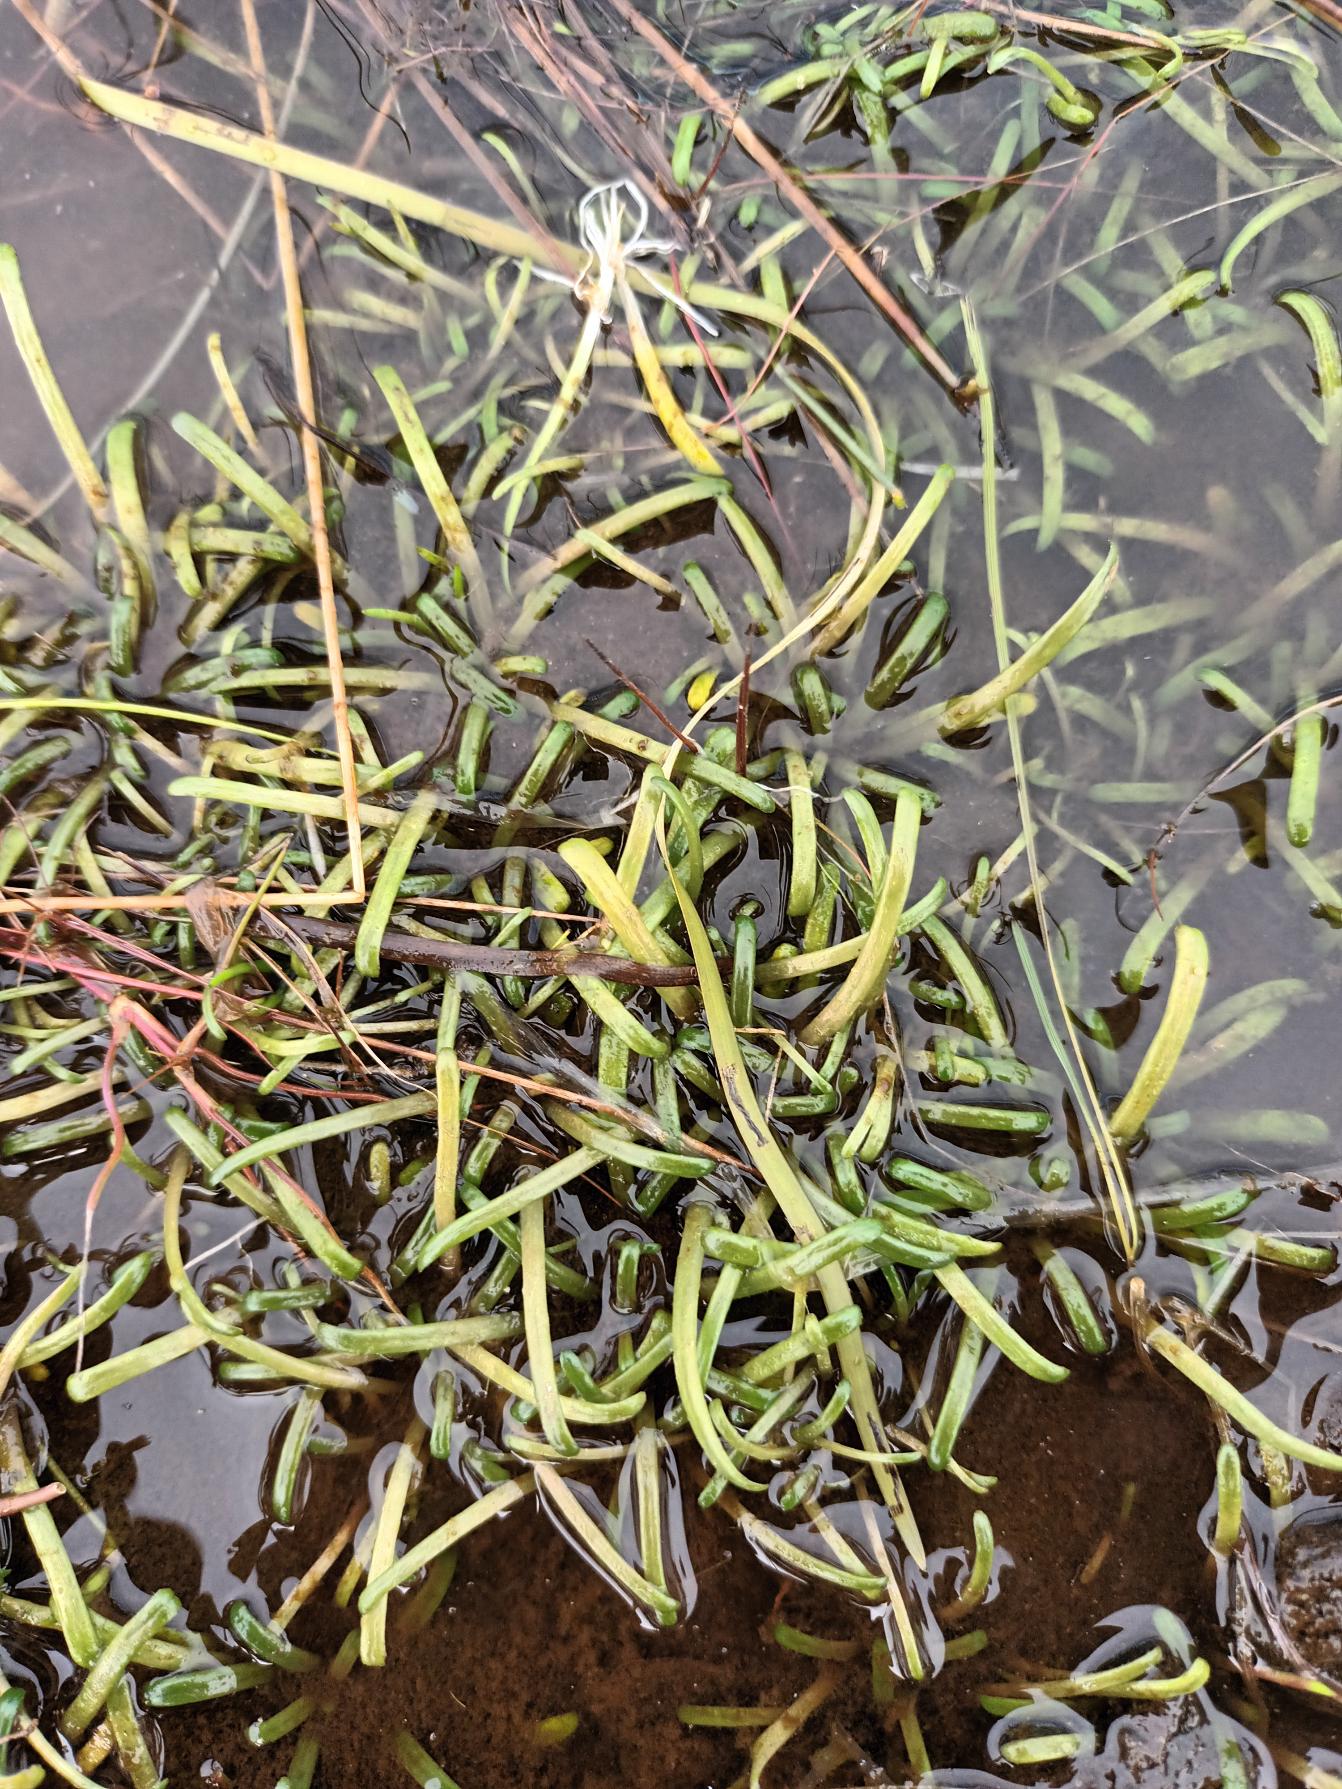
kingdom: Plantae
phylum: Tracheophyta
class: Magnoliopsida
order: Asterales
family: Campanulaceae
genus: Lobelia
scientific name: Lobelia dortmanna
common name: Tvepibet lobelie
